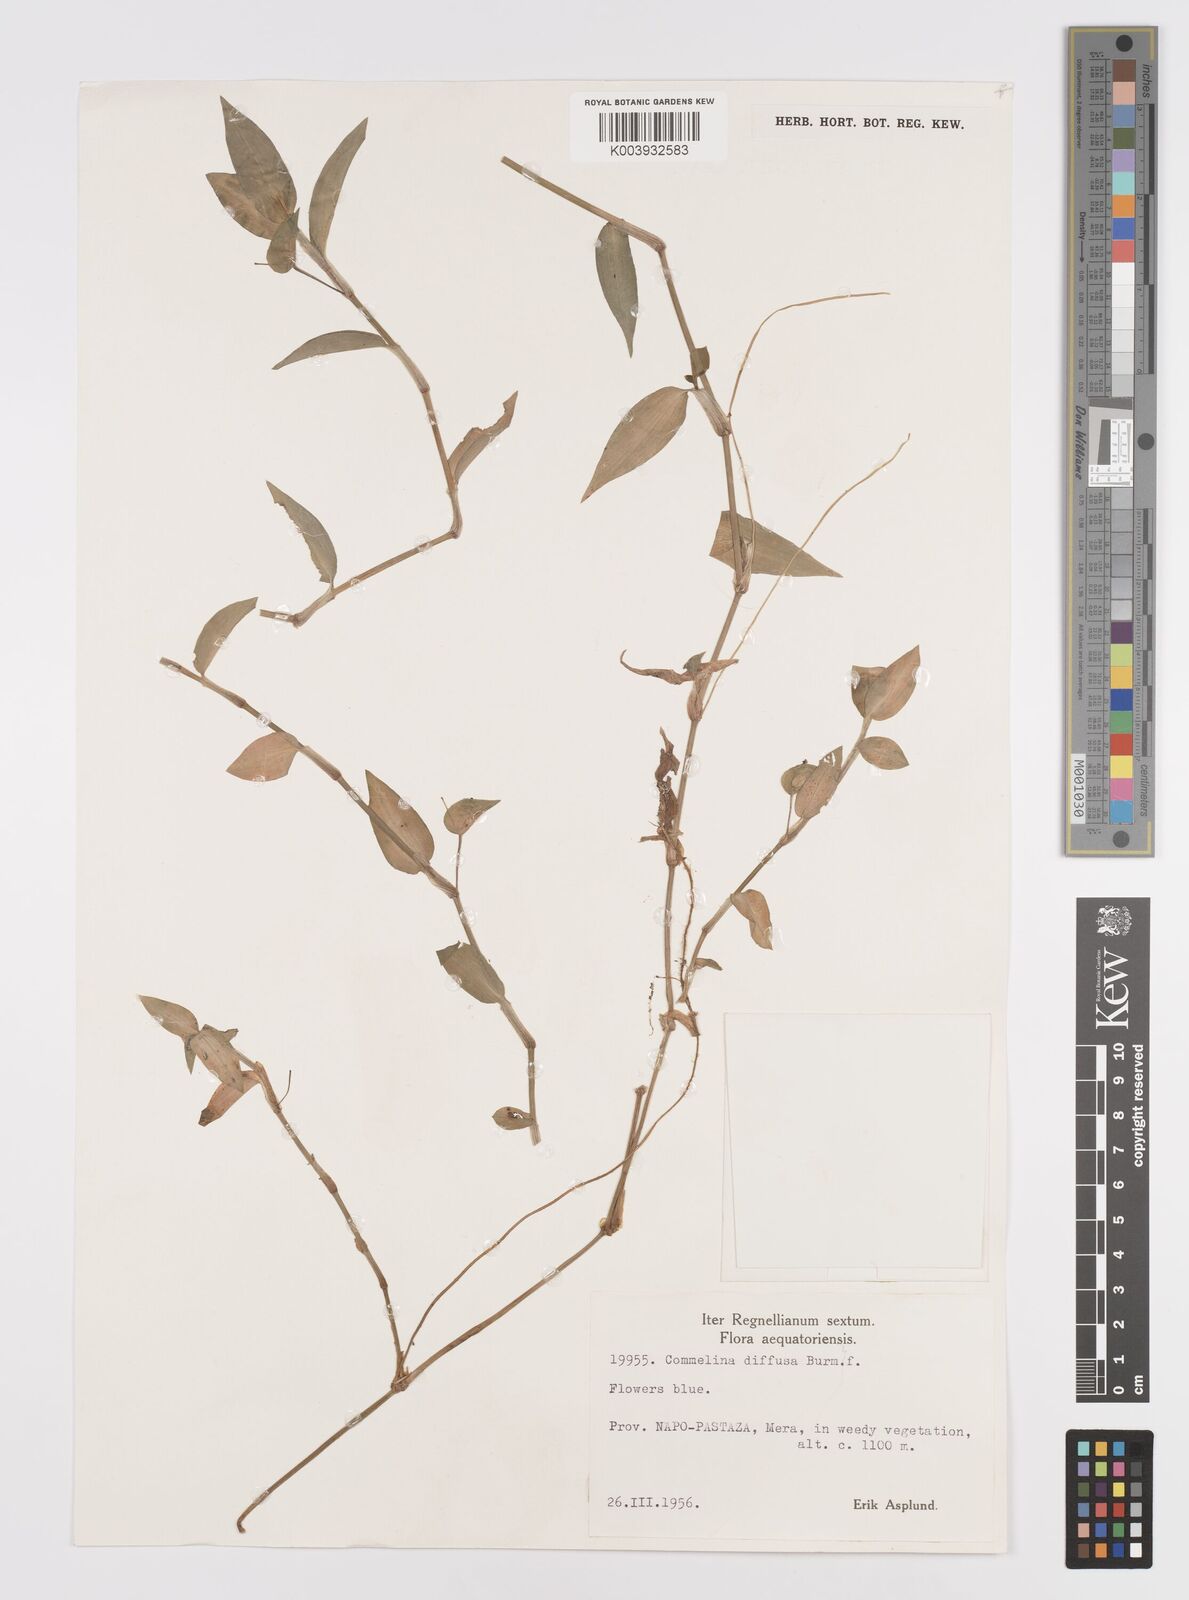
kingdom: Plantae
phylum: Tracheophyta
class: Liliopsida
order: Commelinales
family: Commelinaceae
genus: Commelina
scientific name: Commelina diffusa
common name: Climbing dayflower
